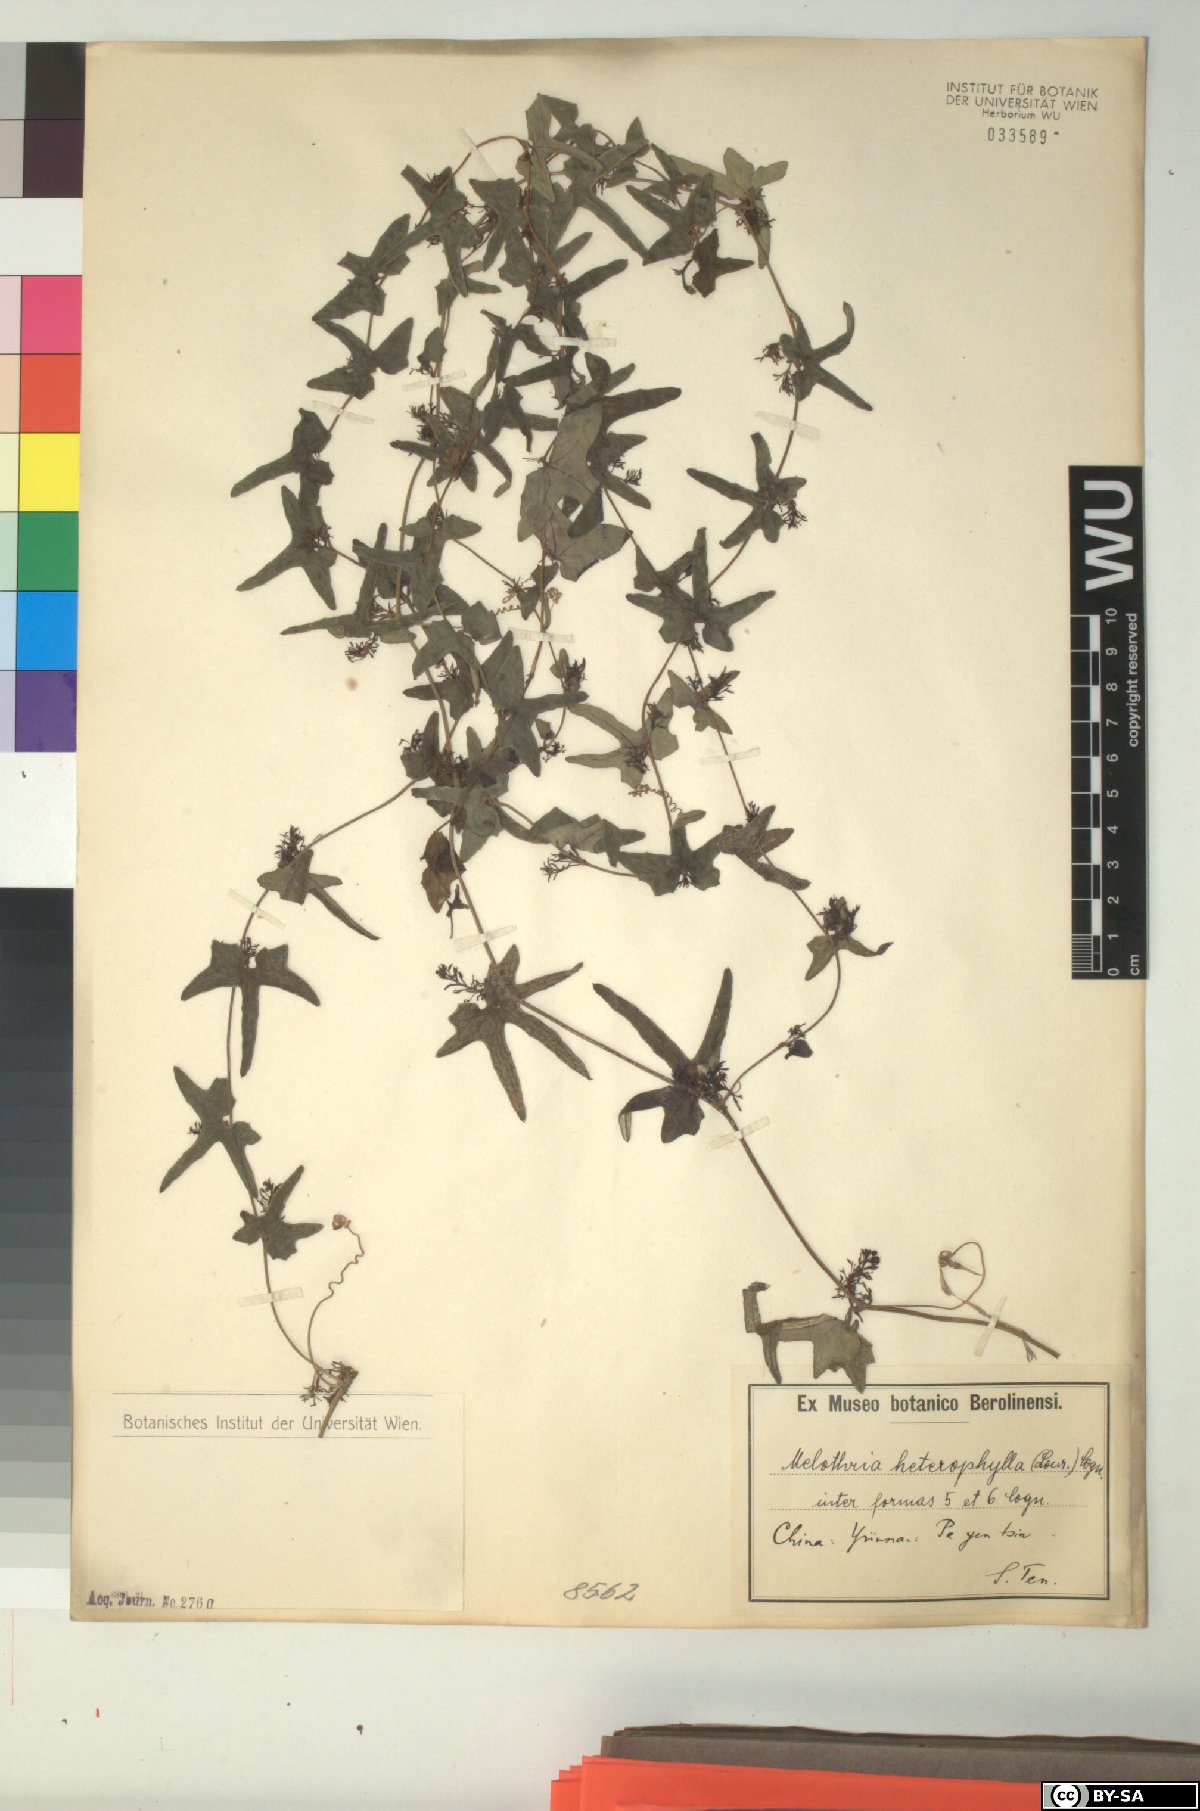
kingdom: Plantae
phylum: Tracheophyta
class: Magnoliopsida
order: Cucurbitales
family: Cucurbitaceae
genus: Melothria
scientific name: Melothria trilobata
